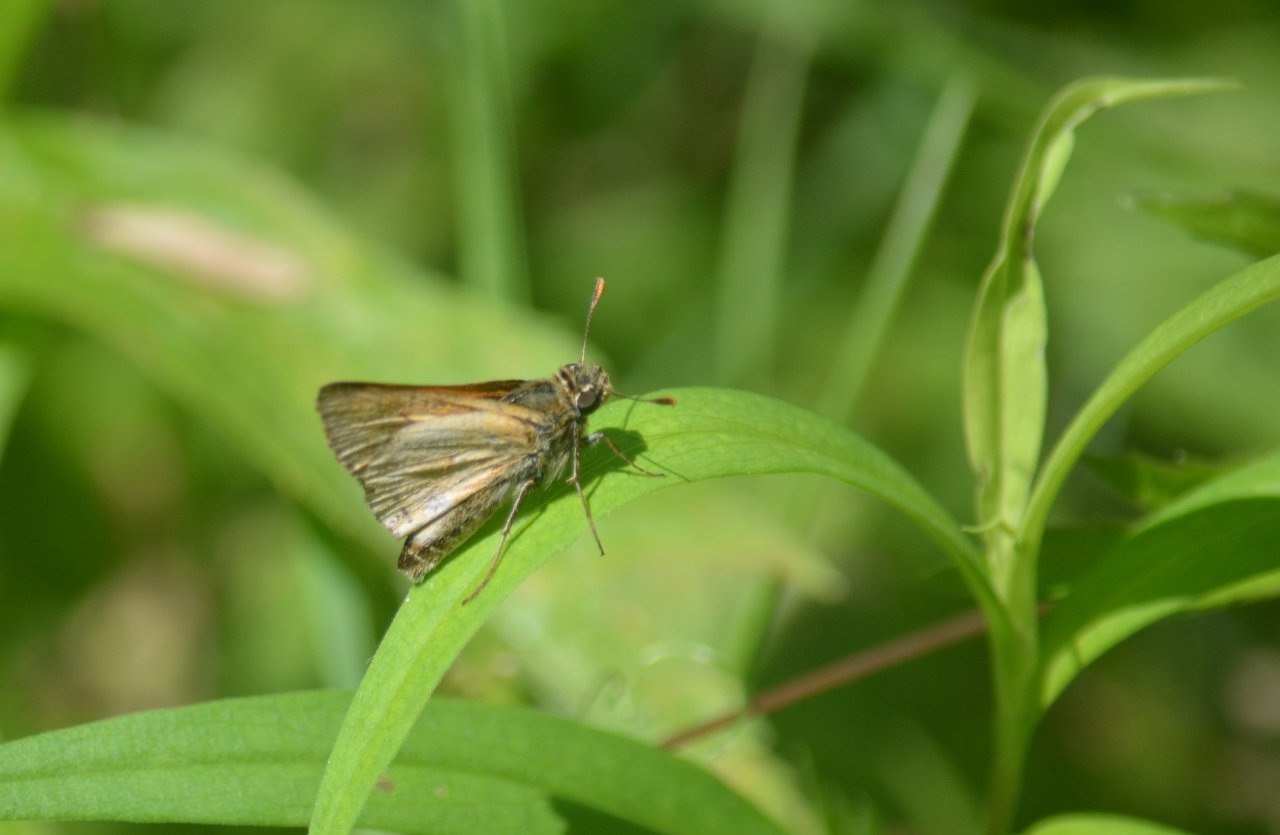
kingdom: Animalia
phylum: Arthropoda
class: Insecta
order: Lepidoptera
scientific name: Lepidoptera
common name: Butterflies
